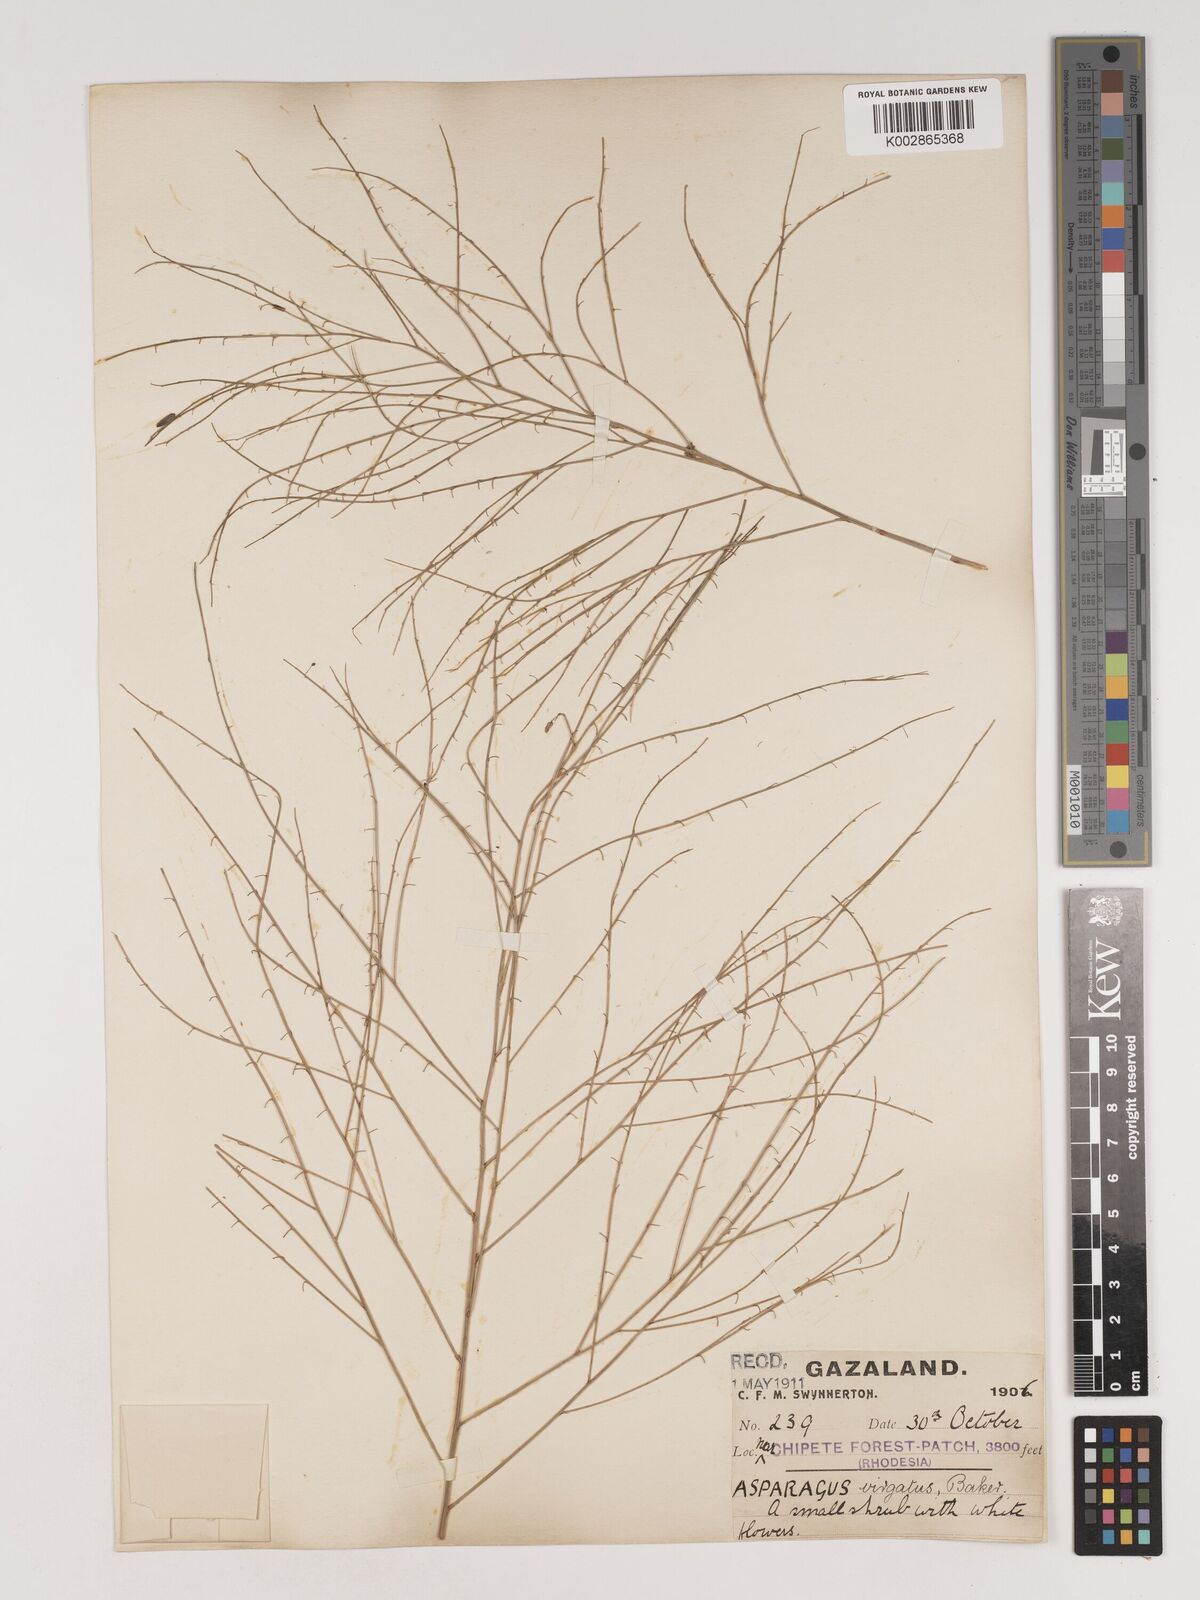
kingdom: Plantae
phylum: Tracheophyta
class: Liliopsida
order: Asparagales
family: Asparagaceae
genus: Asparagus
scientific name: Asparagus virgatus
